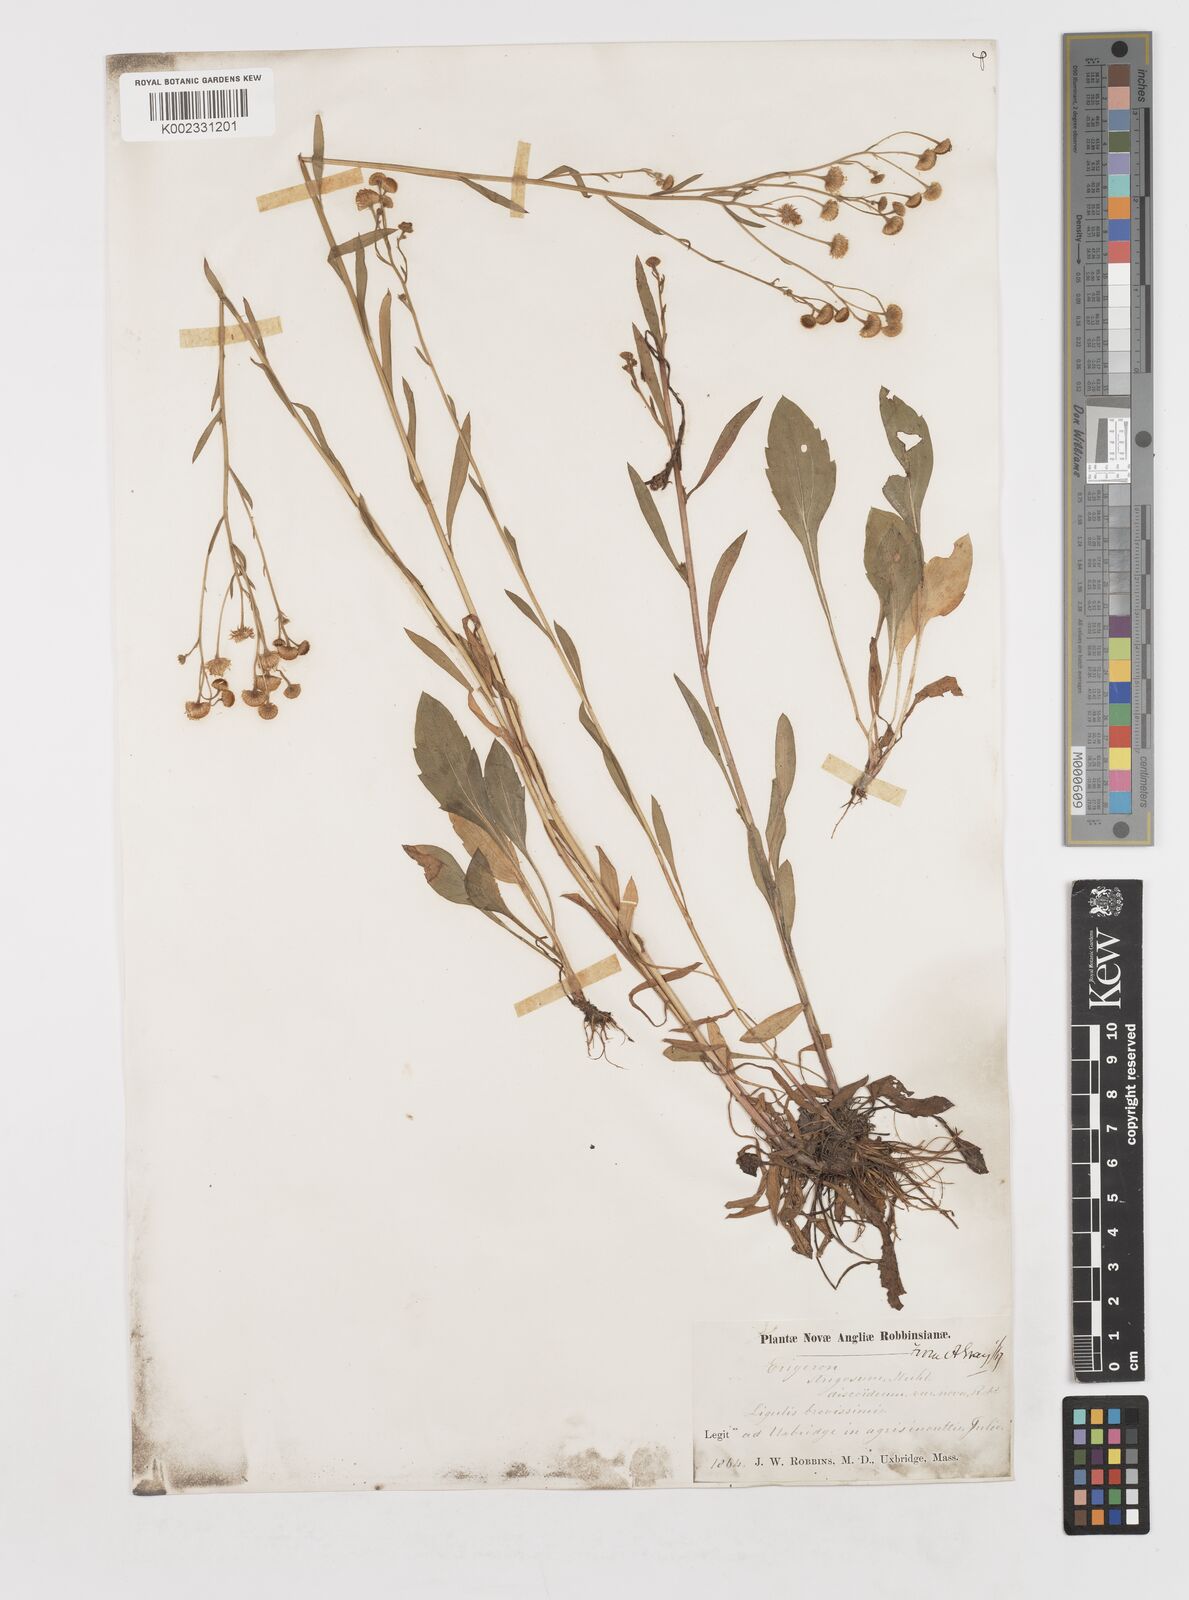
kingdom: Plantae
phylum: Tracheophyta
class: Magnoliopsida
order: Asterales
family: Asteraceae
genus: Erigeron
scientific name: Erigeron strigosus
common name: Common eastern fleabane
